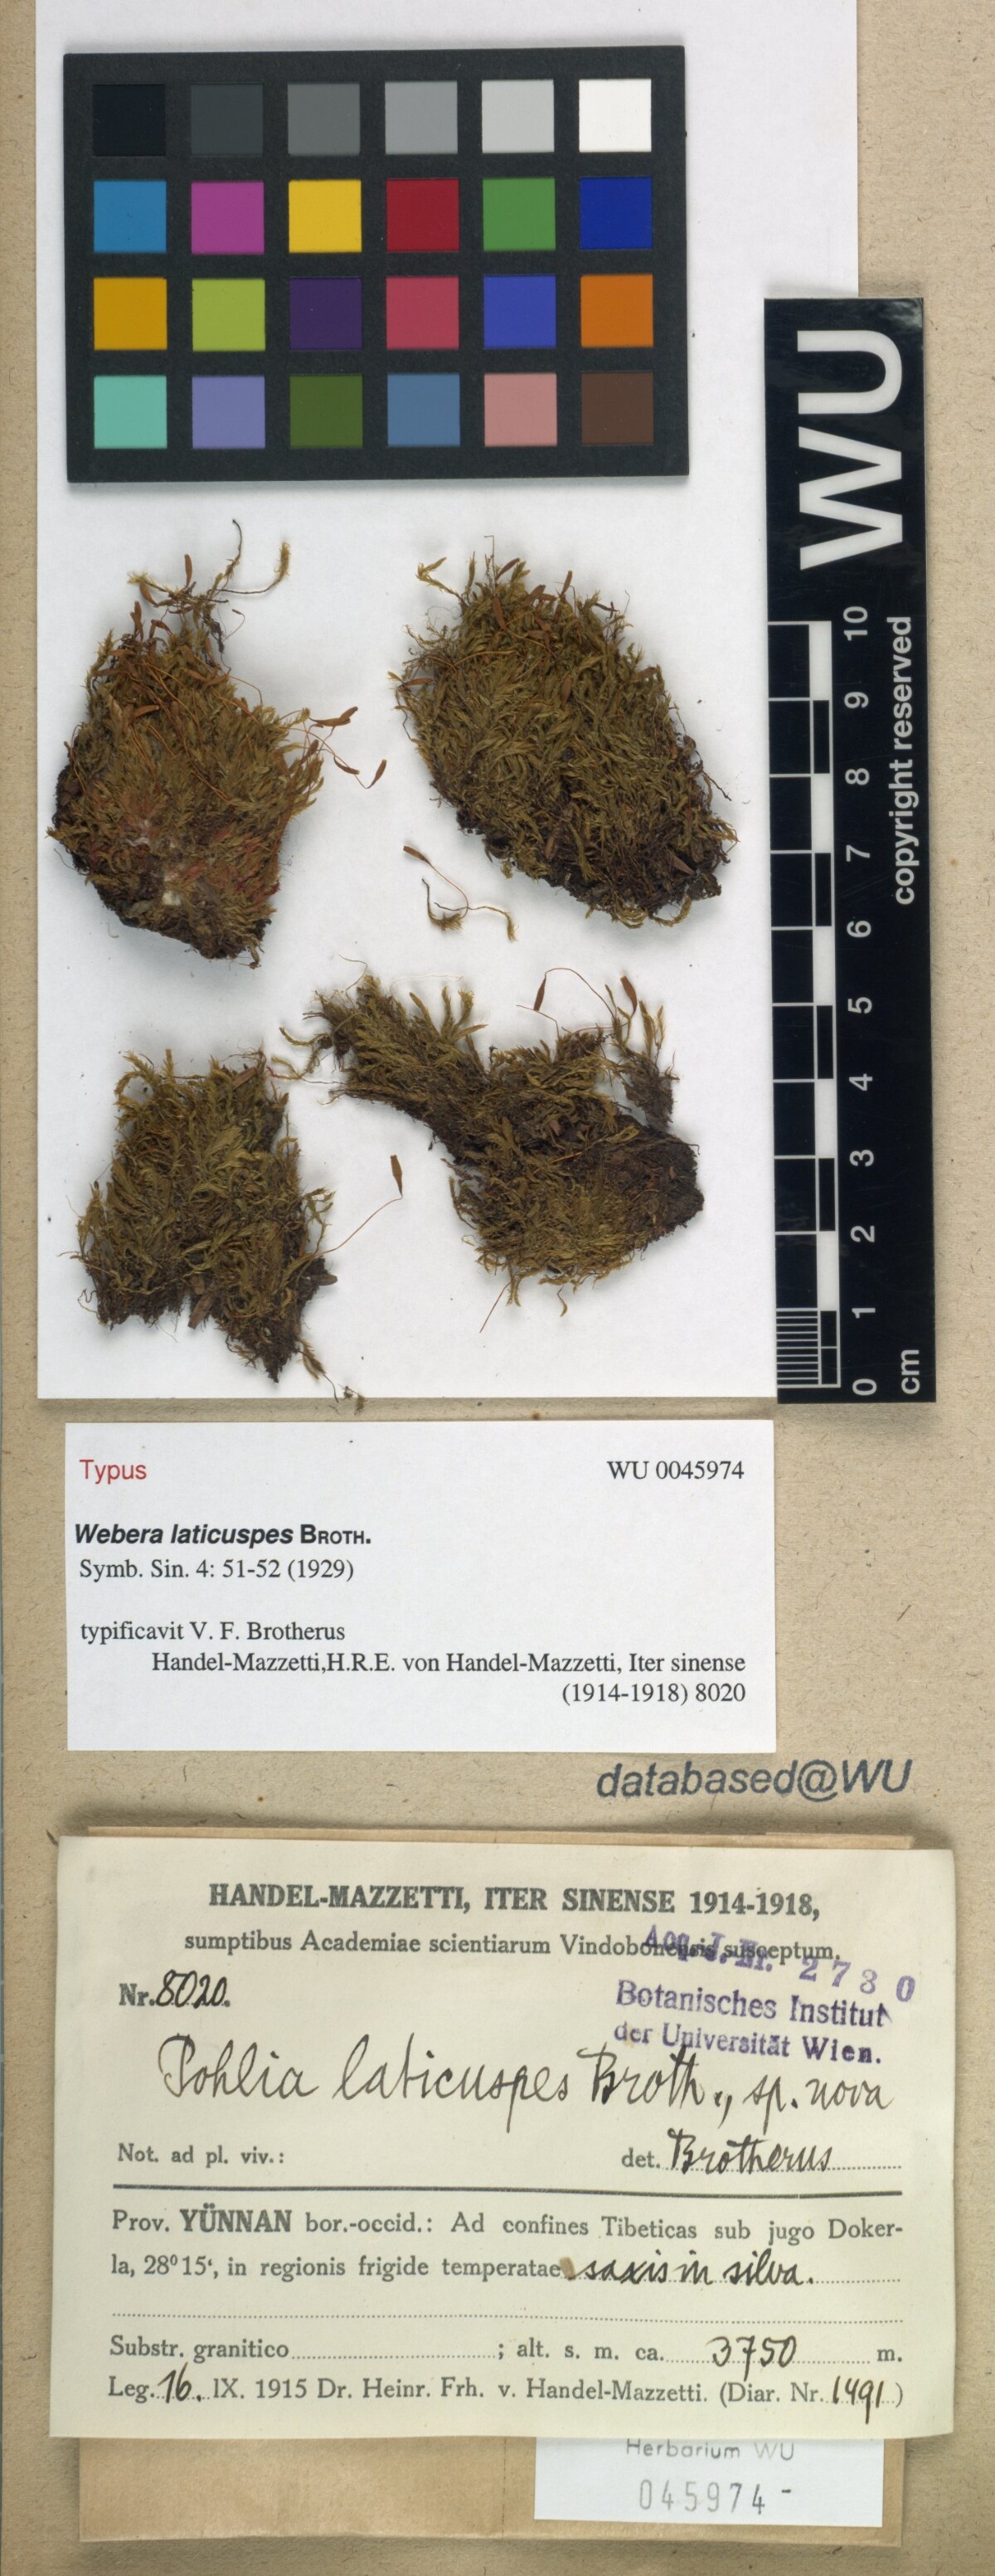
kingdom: Plantae
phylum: Bryophyta
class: Bryopsida
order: Bryales
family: Mniaceae
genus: Pohlia
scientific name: Pohlia oerstediana
